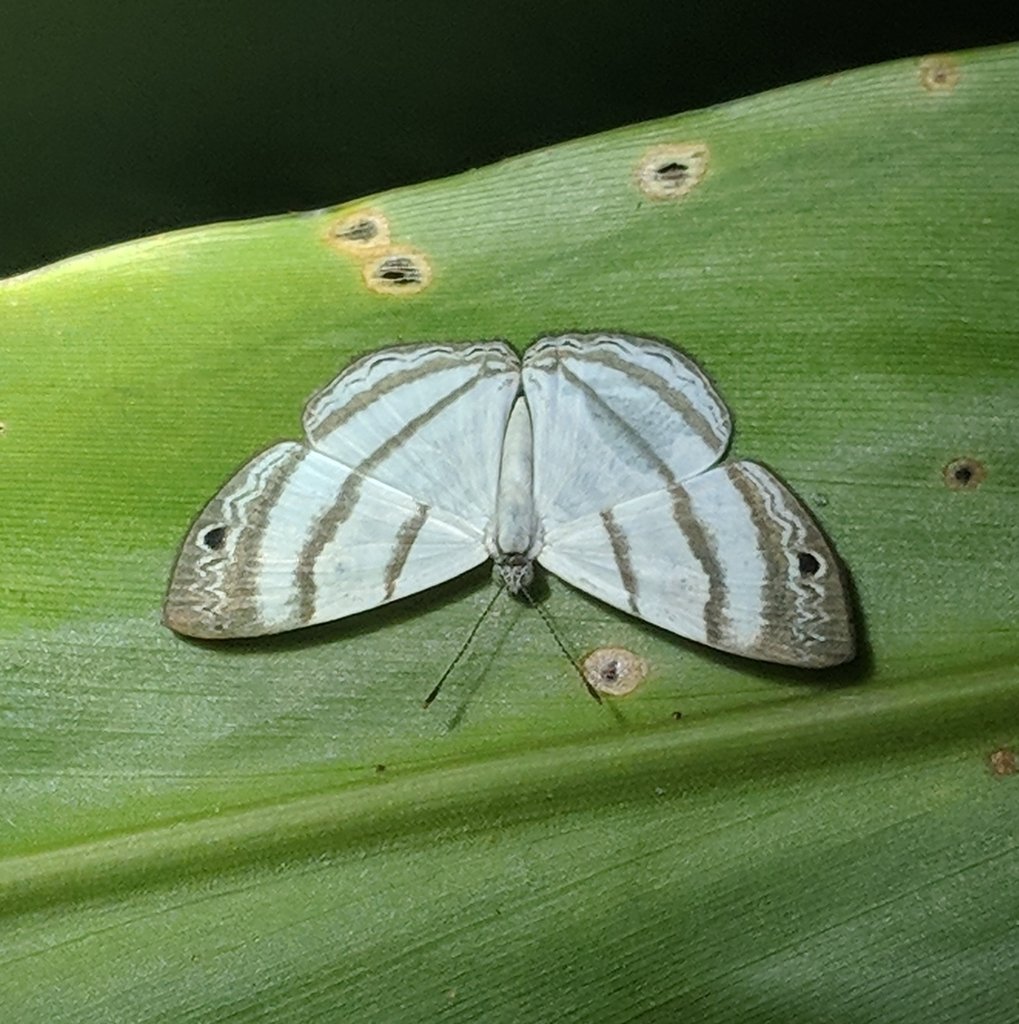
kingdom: Animalia
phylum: Arthropoda
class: Insecta
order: Lepidoptera
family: Hesperiidae
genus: Leucochitonea
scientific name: Leucochitonea
